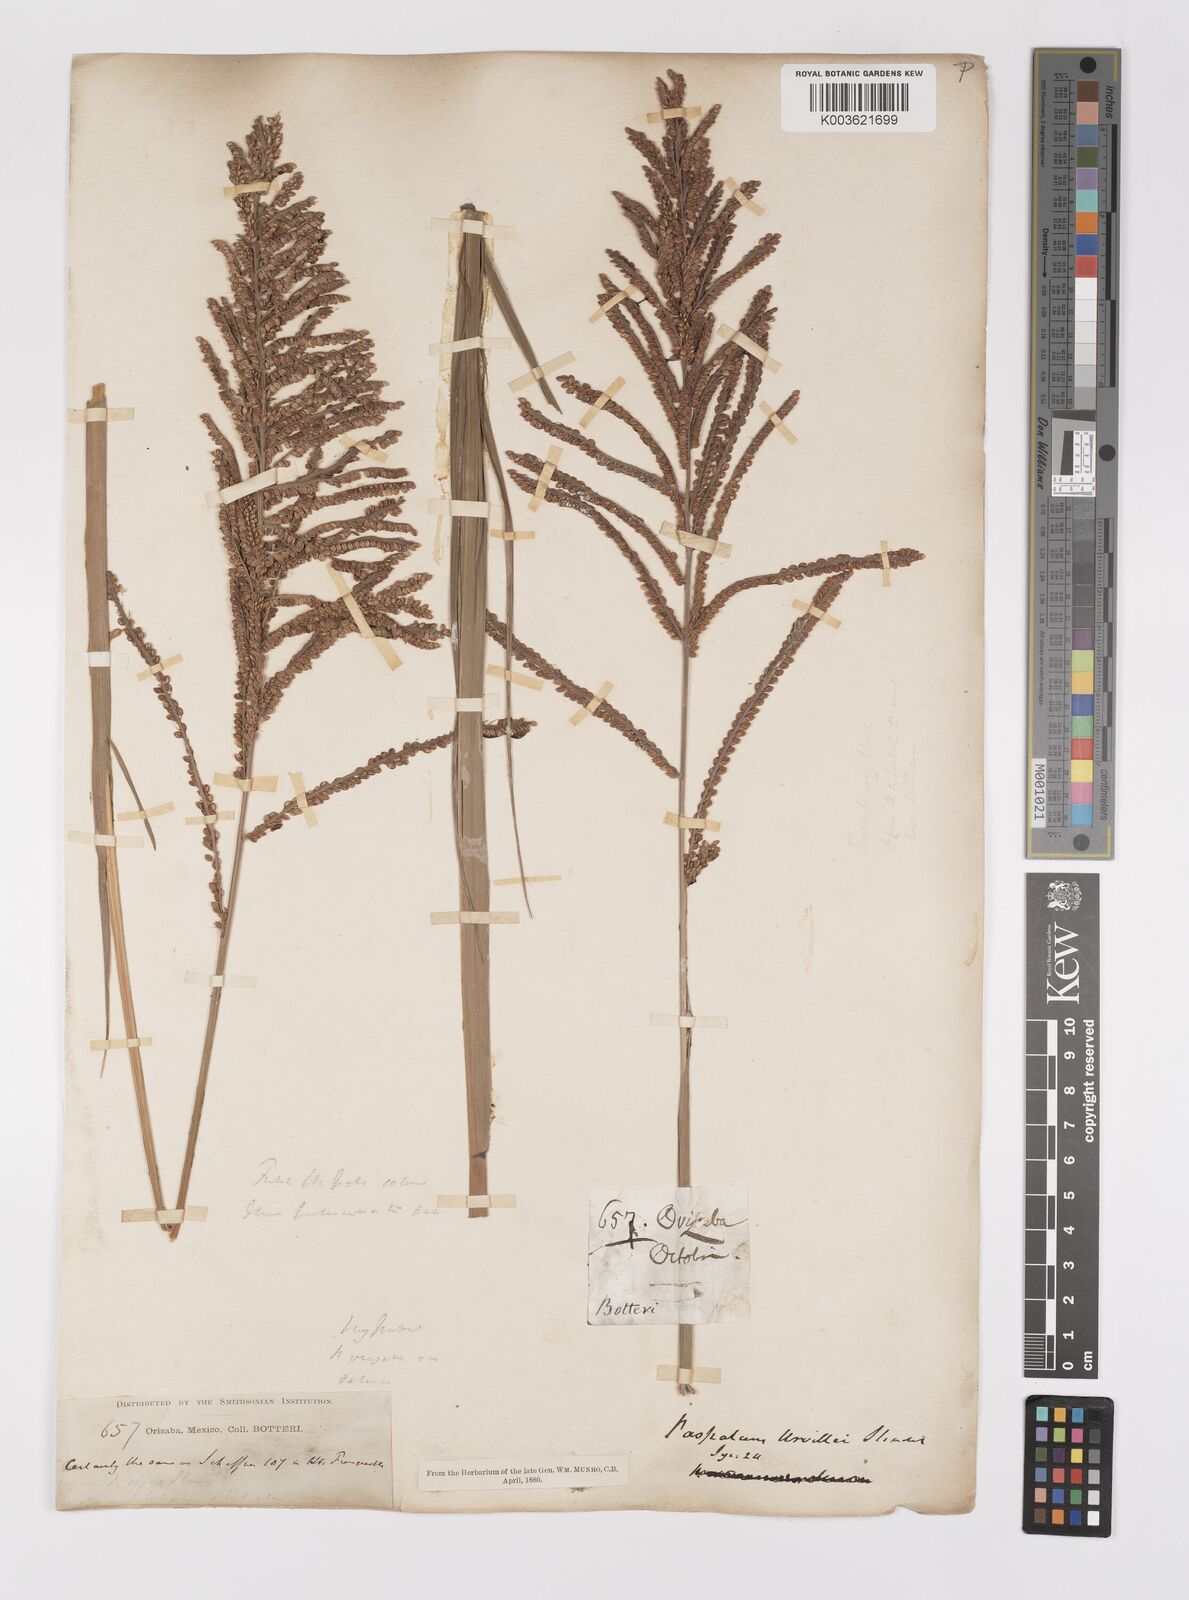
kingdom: Plantae
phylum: Tracheophyta
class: Liliopsida
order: Poales
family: Poaceae
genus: Paspalum
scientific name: Paspalum plenum
